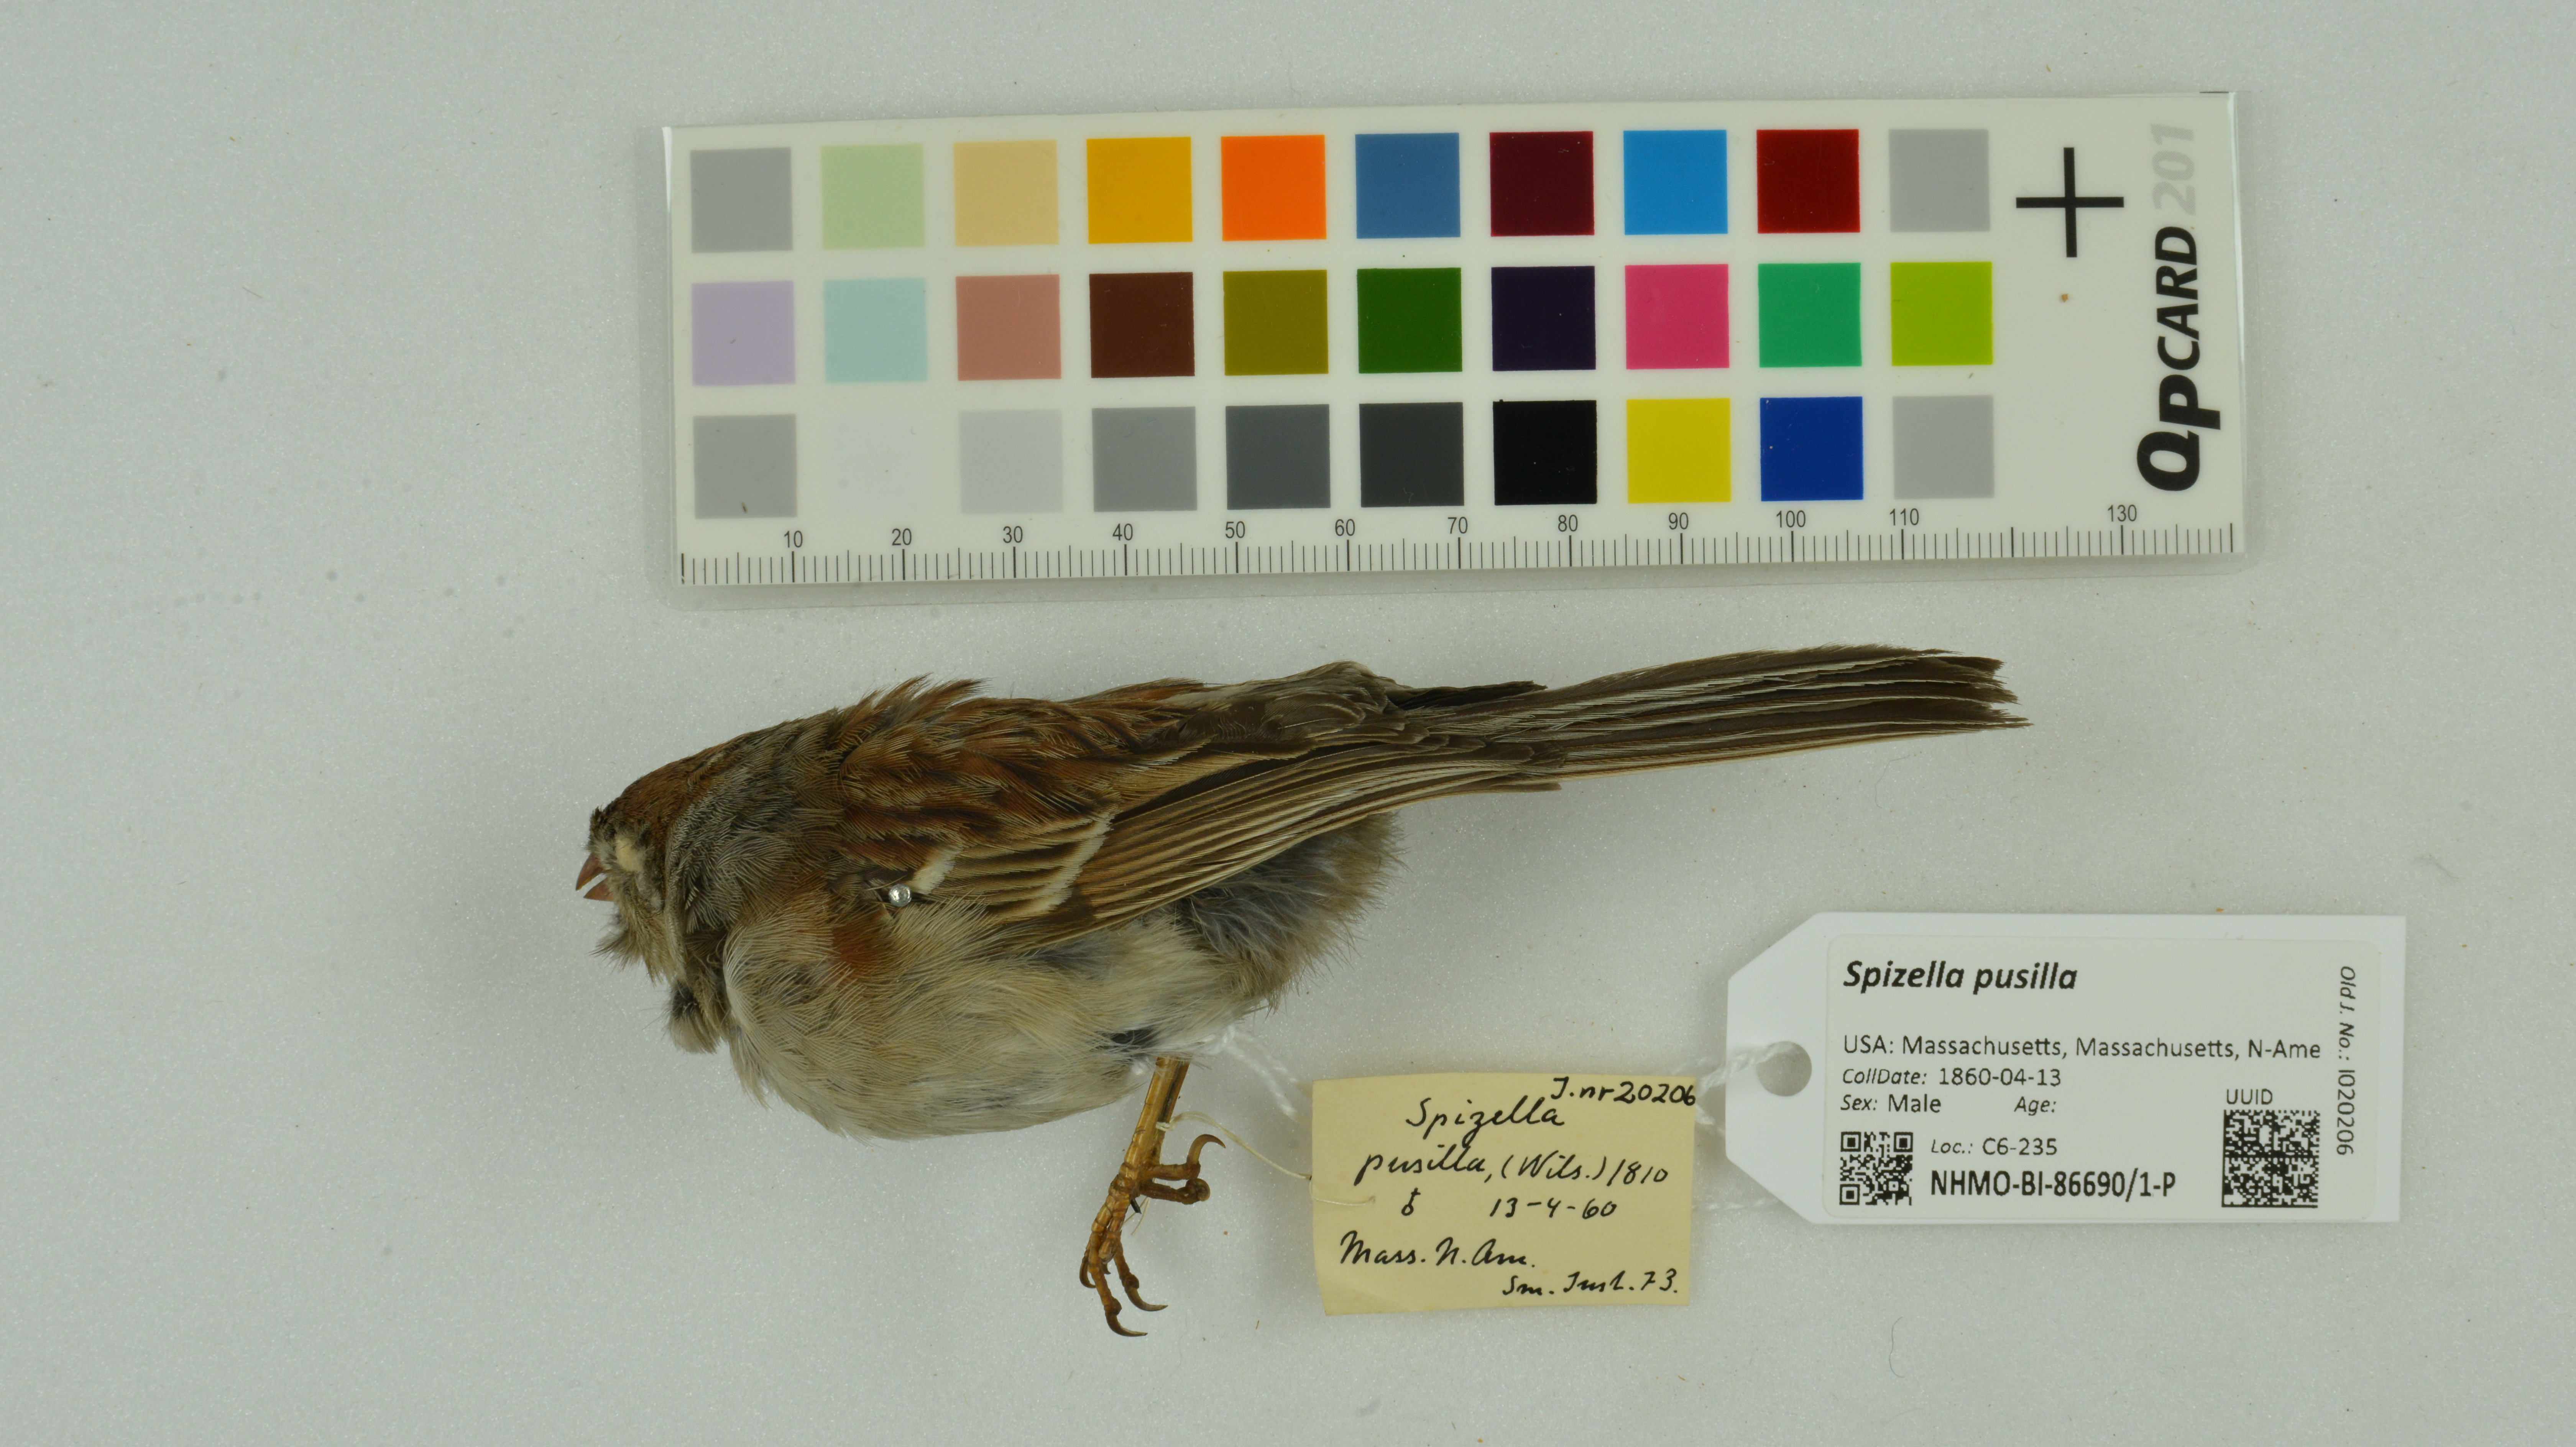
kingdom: Animalia
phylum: Chordata
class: Aves
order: Passeriformes
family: Passerellidae
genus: Spizella
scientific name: Spizella pusilla
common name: Field sparrow
